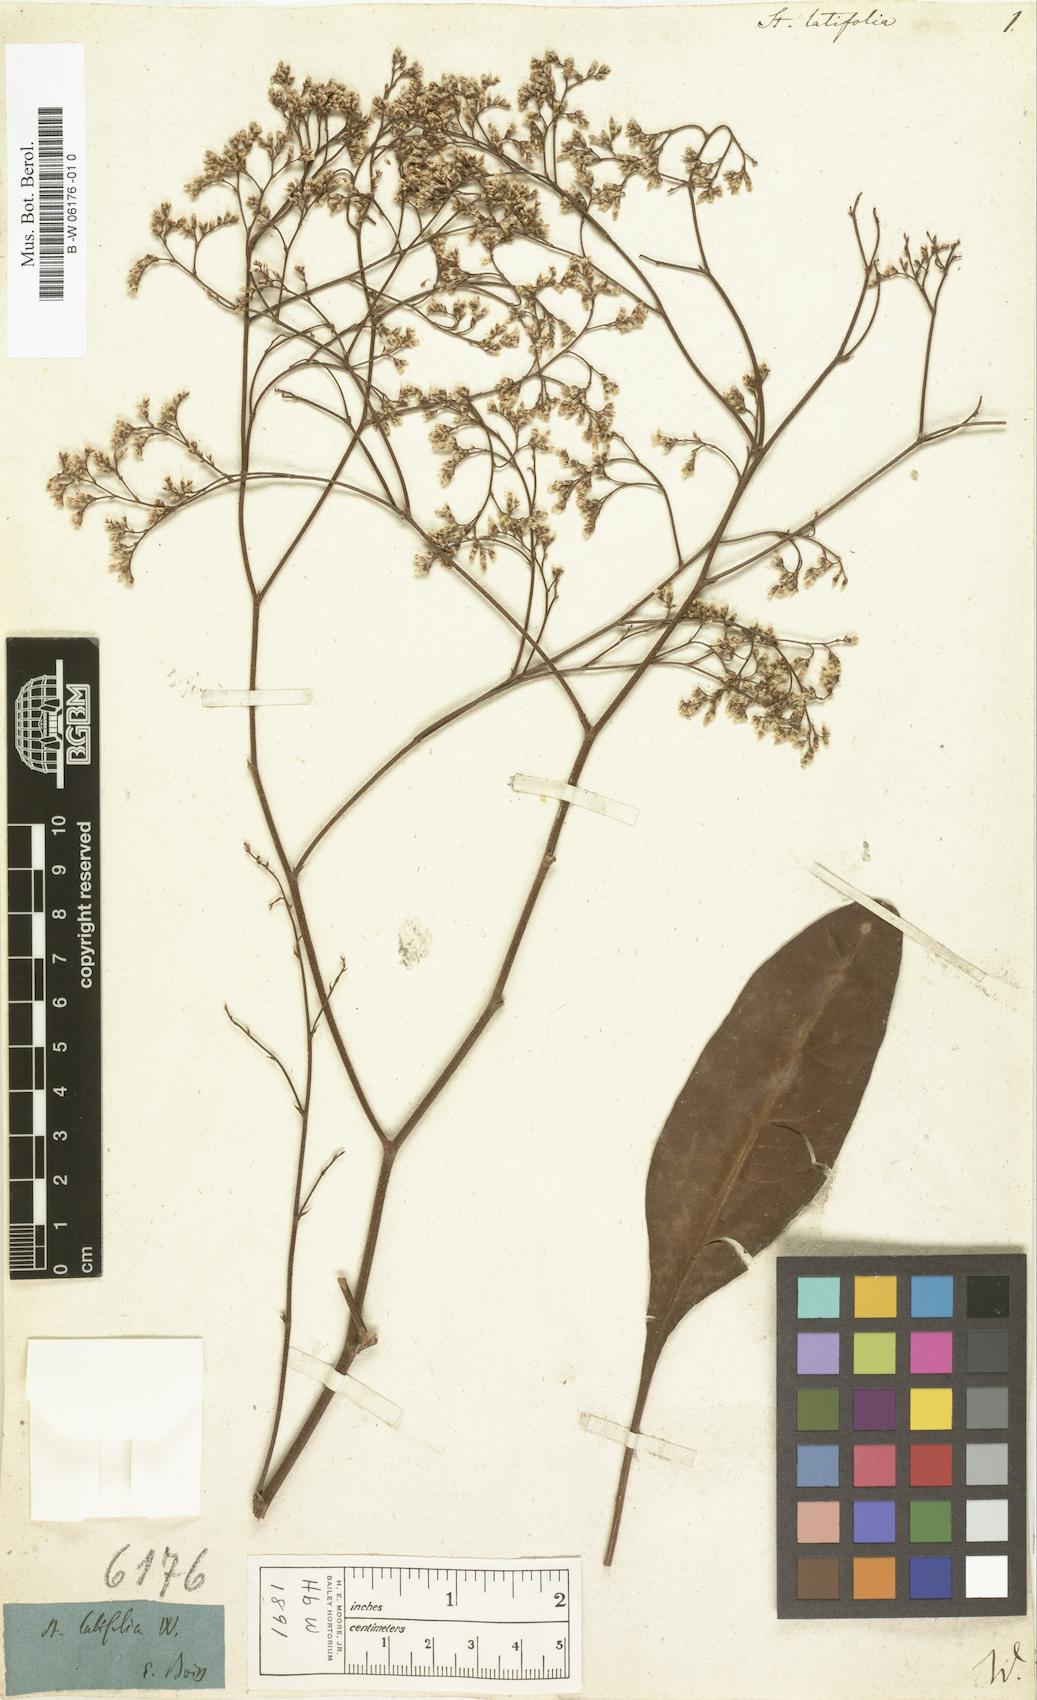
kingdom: Plantae
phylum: Tracheophyta
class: Magnoliopsida
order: Caryophyllales
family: Plumbaginaceae
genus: Limonium
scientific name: Limonium platyphyllum
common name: Florist's sea lavender
